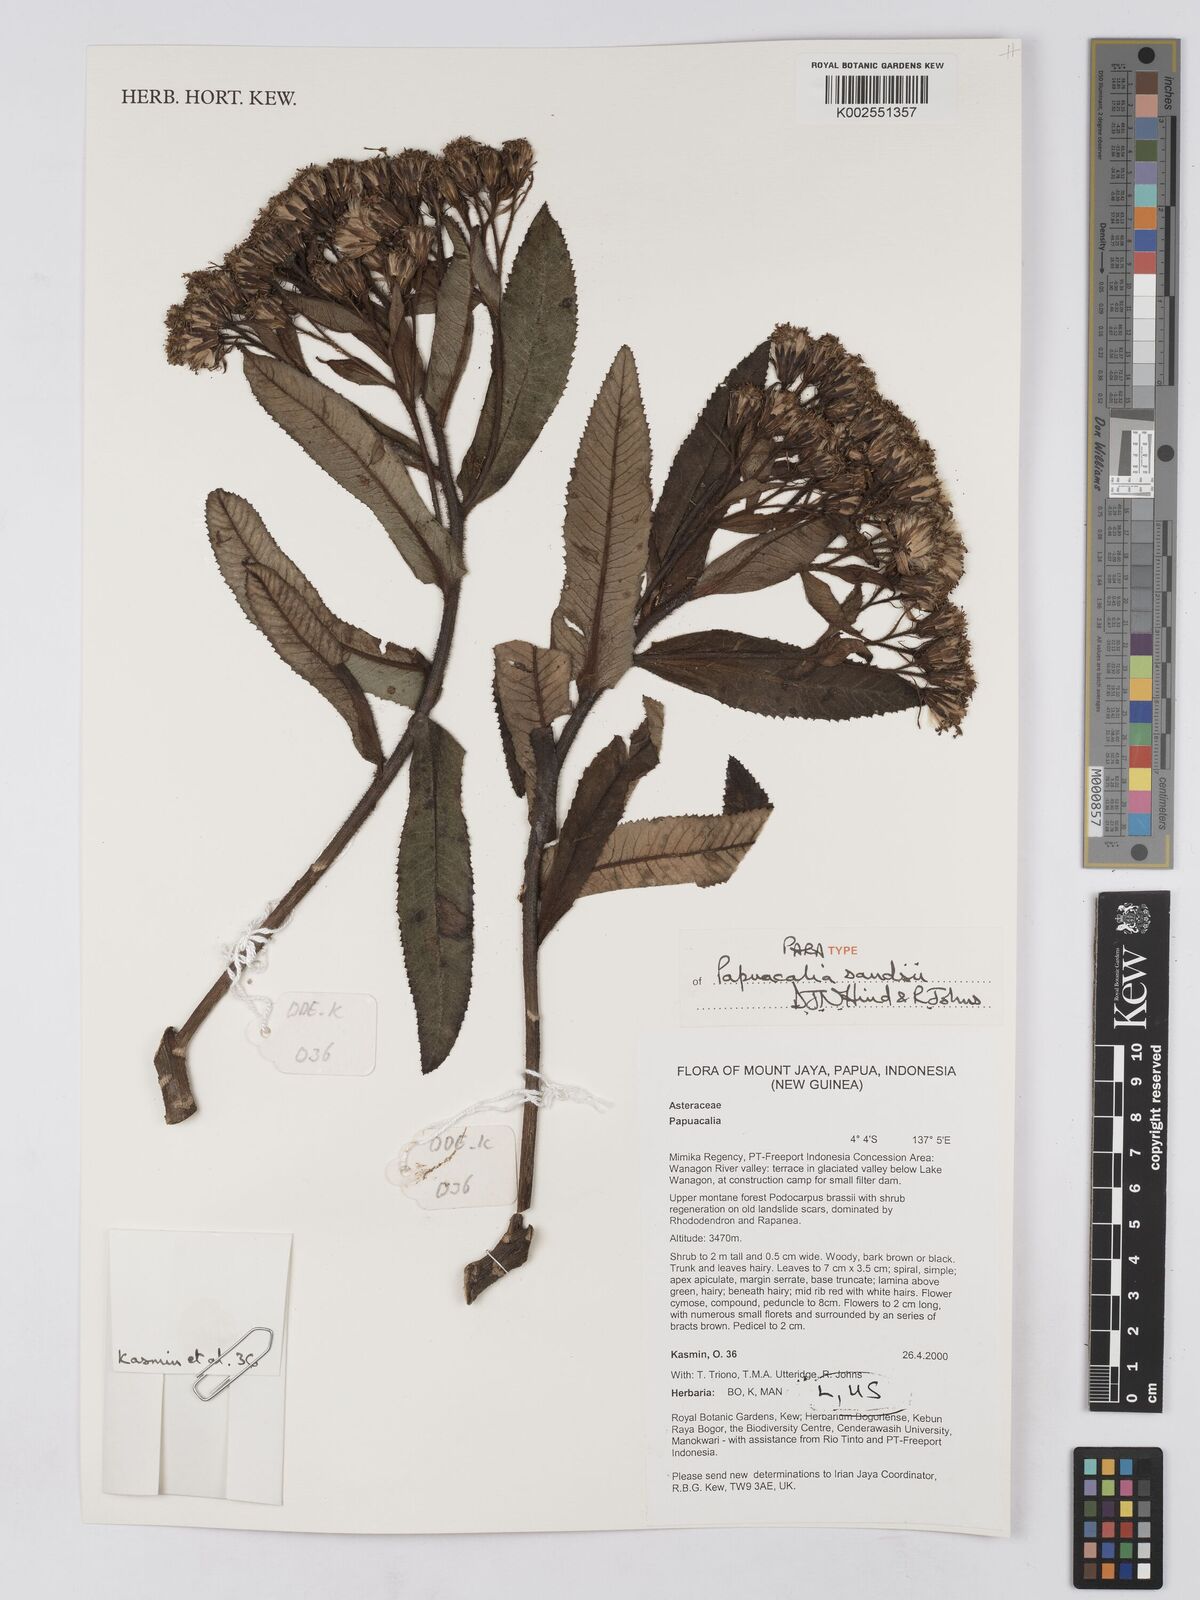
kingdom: Plantae
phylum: Tracheophyta
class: Magnoliopsida
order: Asterales
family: Asteraceae
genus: Papuacalia
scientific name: Papuacalia sandsii
